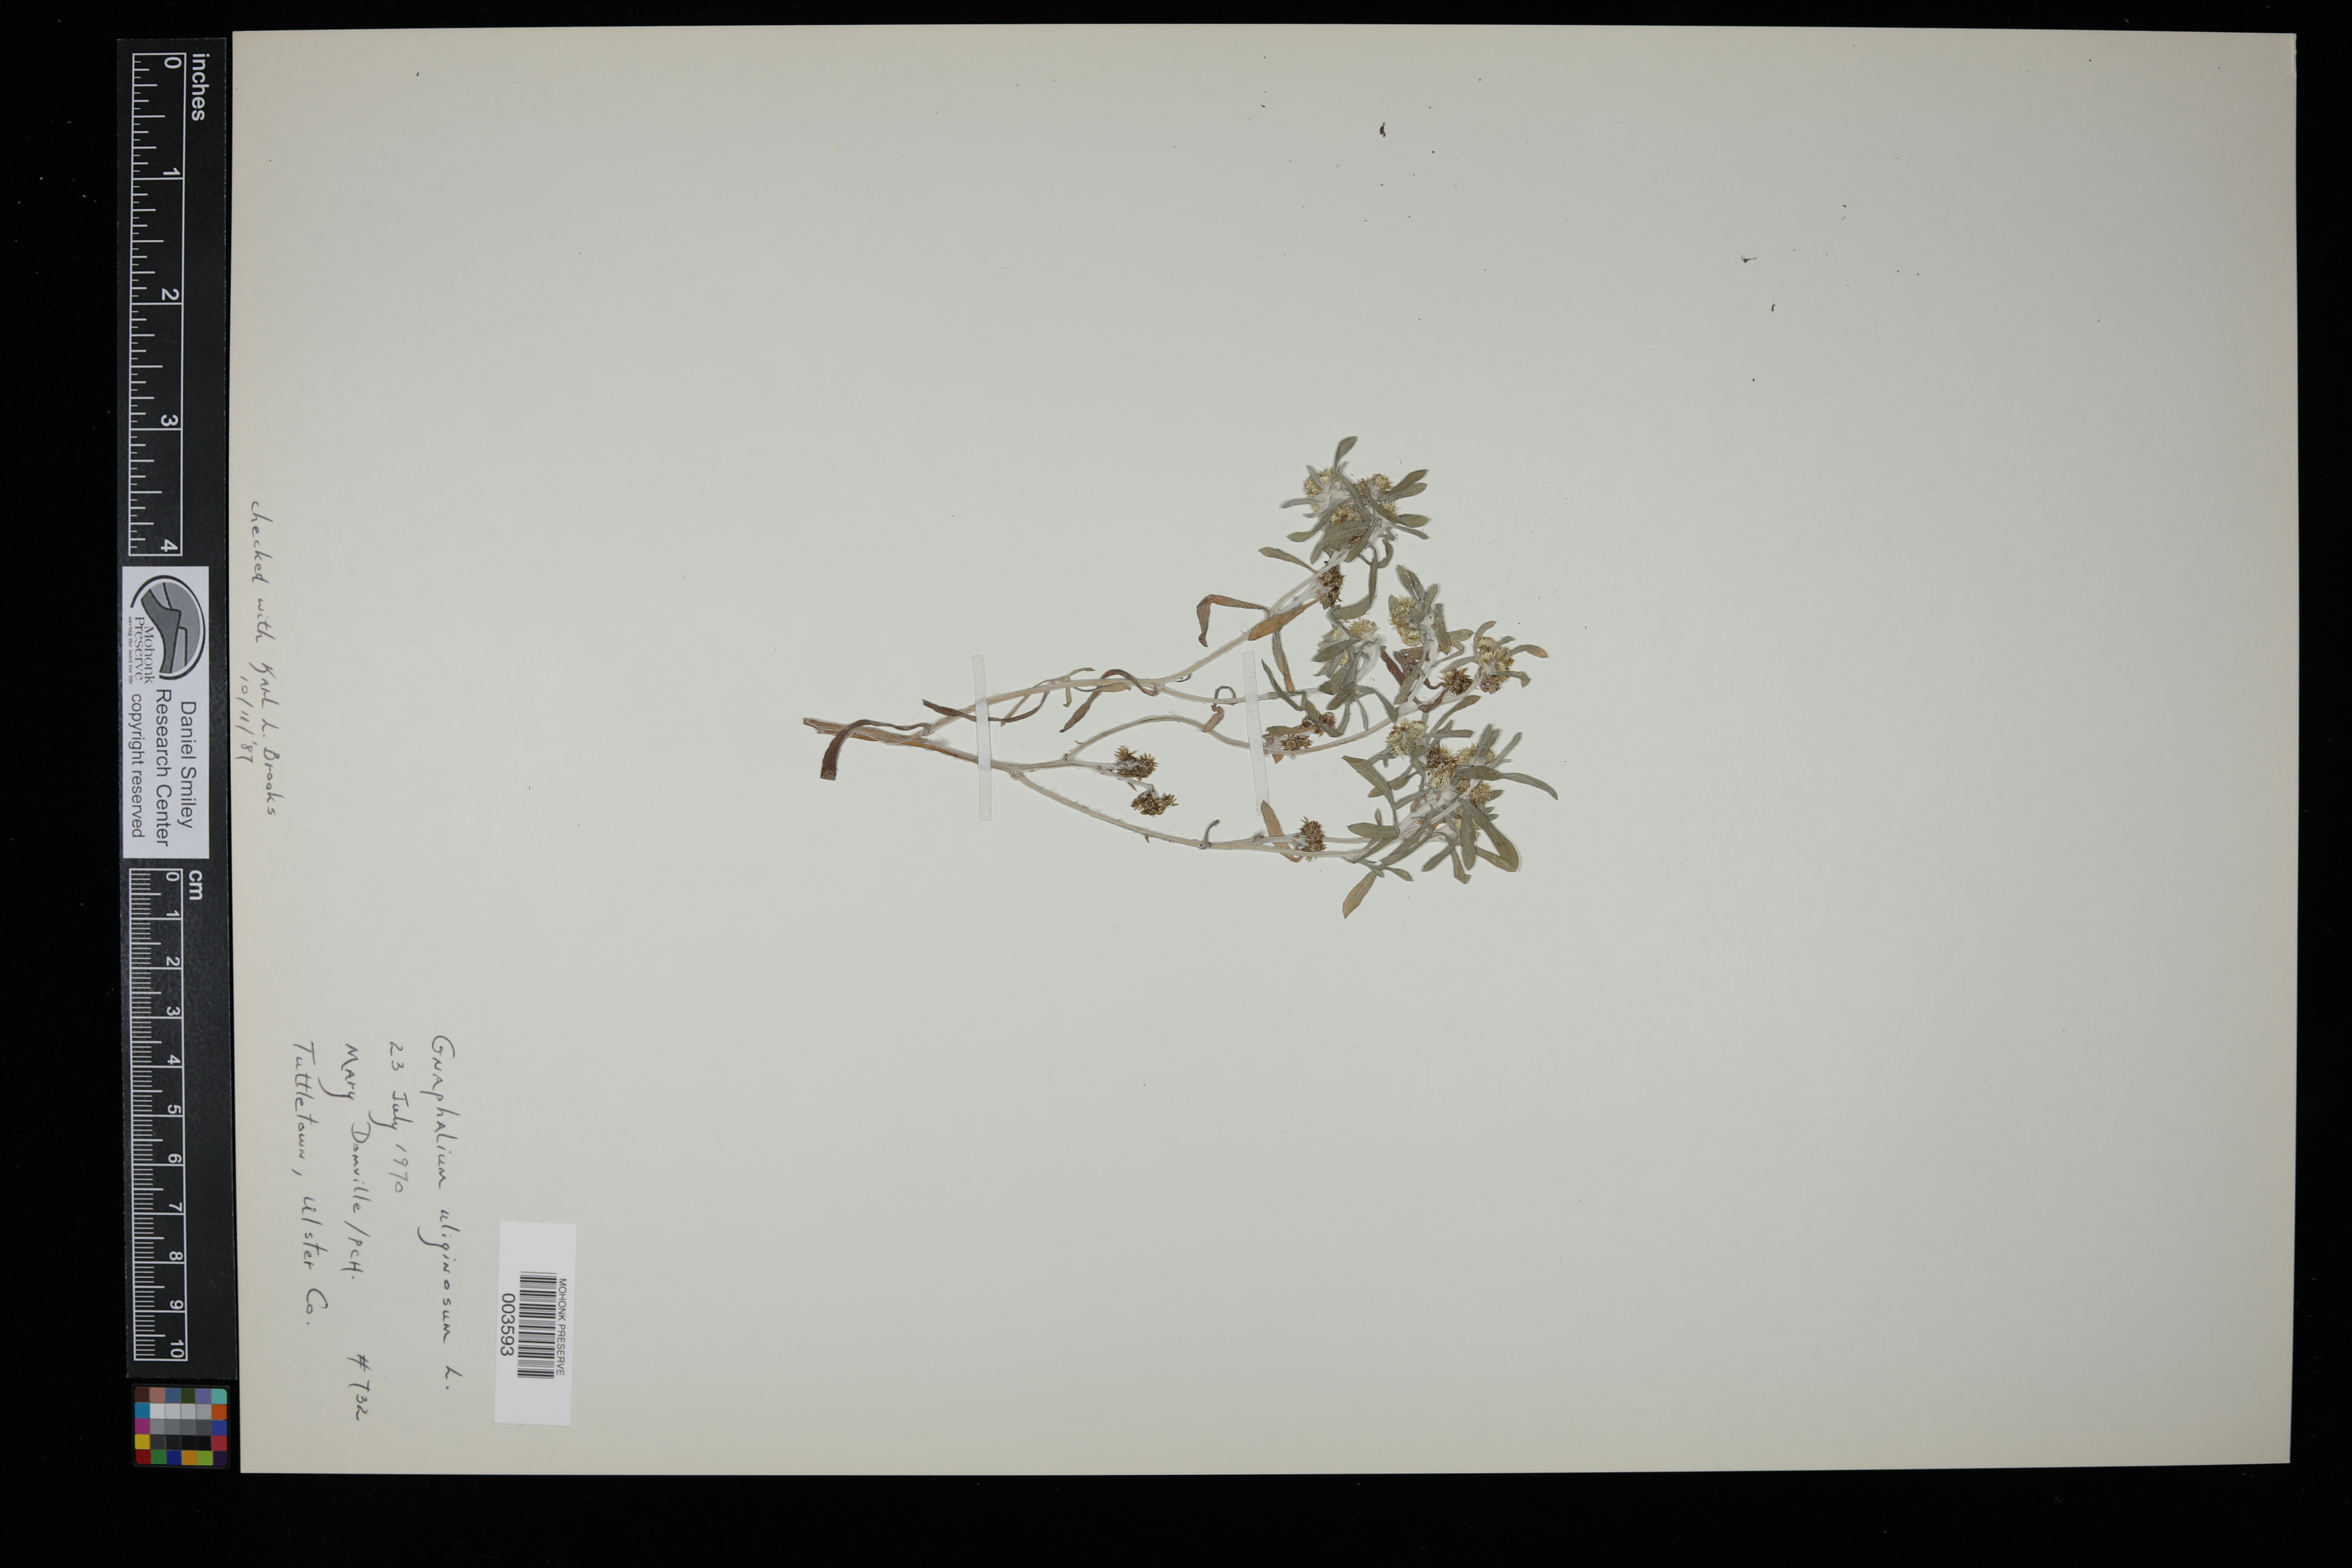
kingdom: Plantae
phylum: Tracheophyta
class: Magnoliopsida
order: Asterales
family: Asteraceae
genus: Gnaphalium
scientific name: Gnaphalium uliginosum
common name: Marsh cudweed
